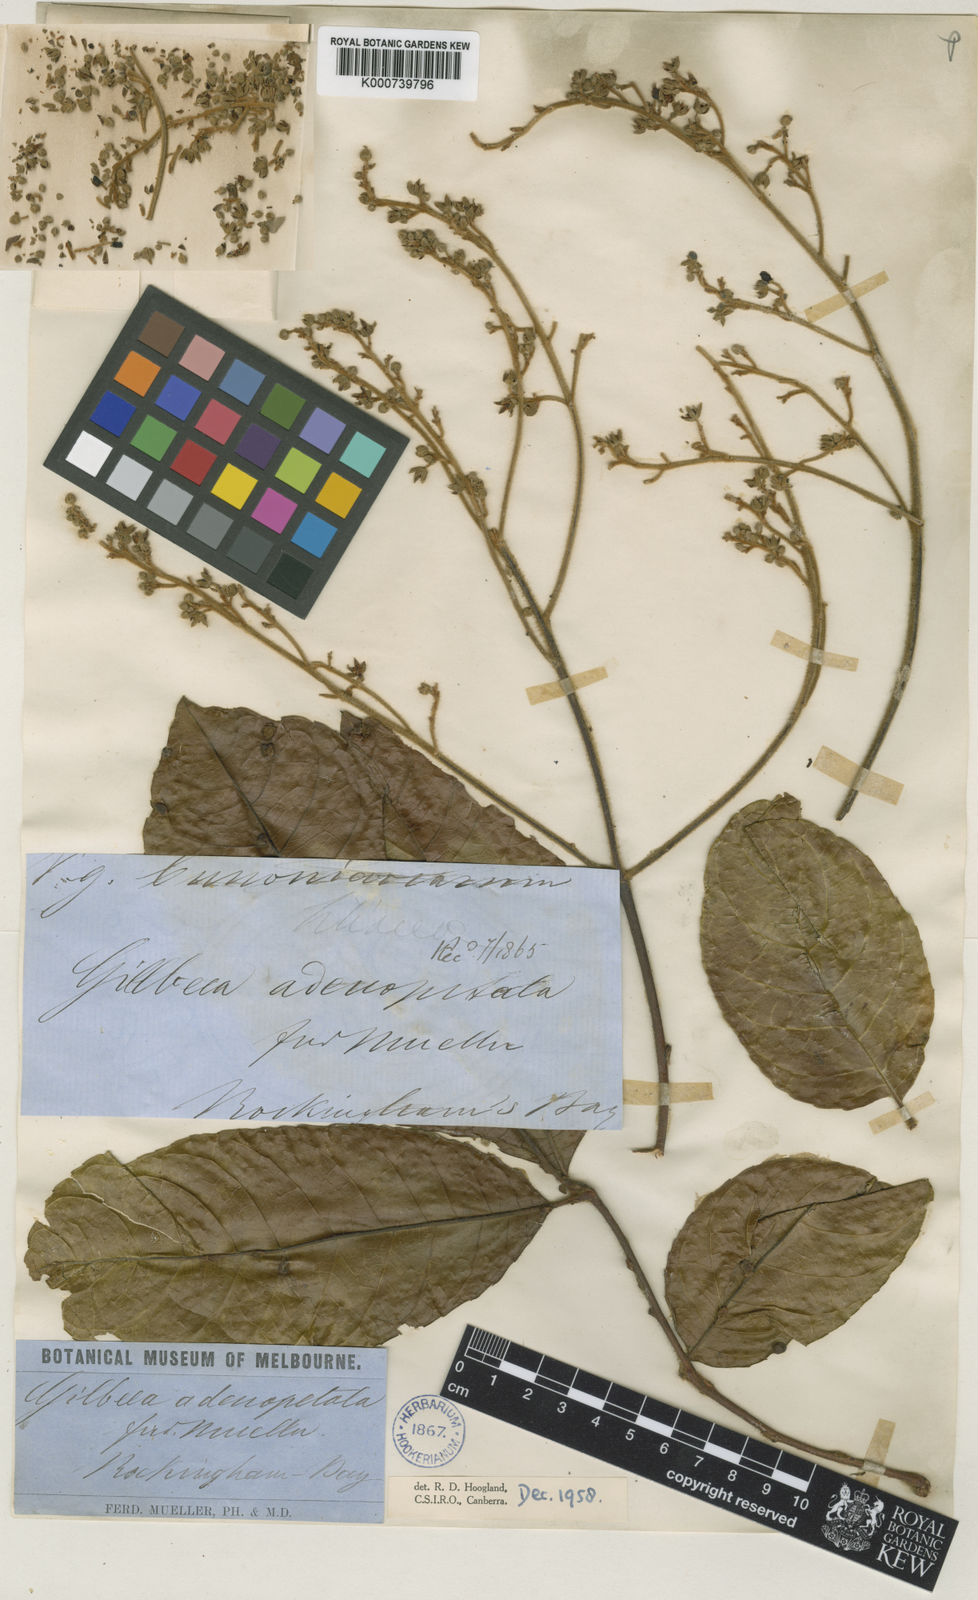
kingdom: Plantae
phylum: Tracheophyta
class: Magnoliopsida
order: Oxalidales
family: Cunoniaceae
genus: Gillbeea
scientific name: Gillbeea adenopetala
